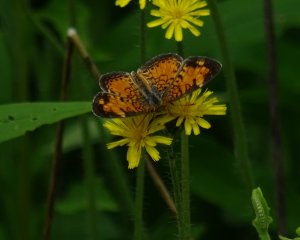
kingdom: Animalia
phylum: Arthropoda
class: Insecta
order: Lepidoptera
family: Nymphalidae
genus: Phyciodes
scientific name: Phyciodes tharos
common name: Northern Crescent
